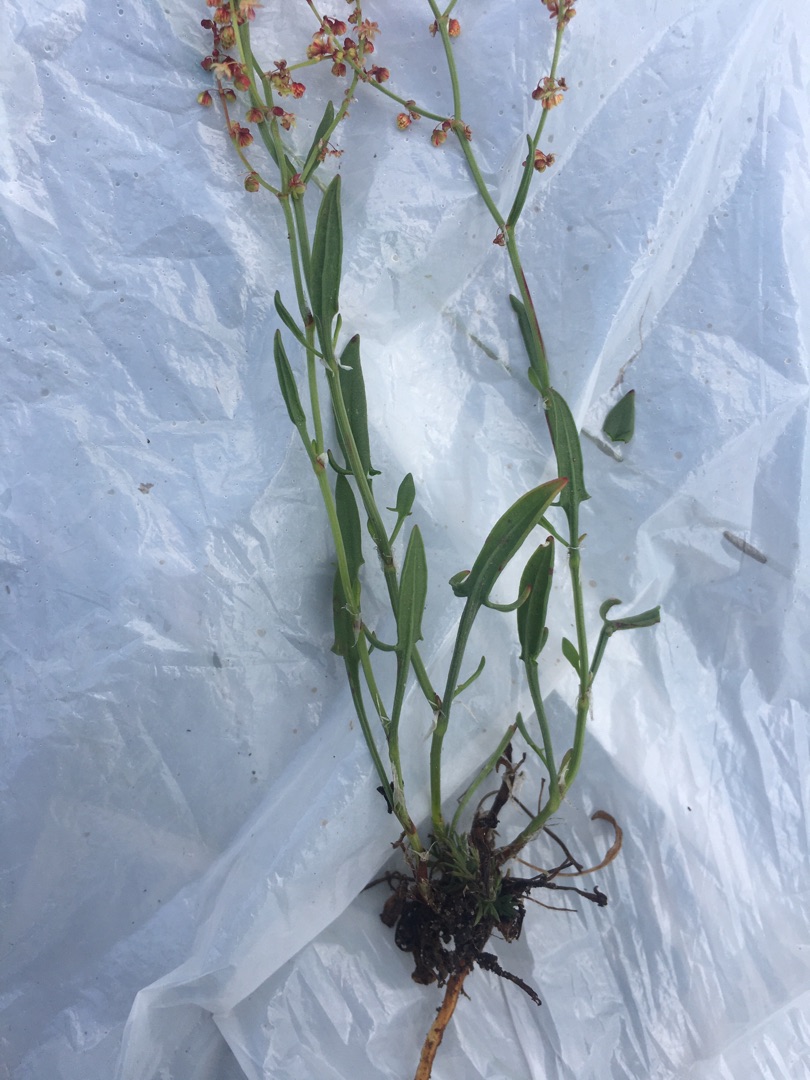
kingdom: Plantae
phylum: Tracheophyta
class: Magnoliopsida
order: Caryophyllales
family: Polygonaceae
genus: Rumex
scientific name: Rumex acetosella
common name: Rødknæ
